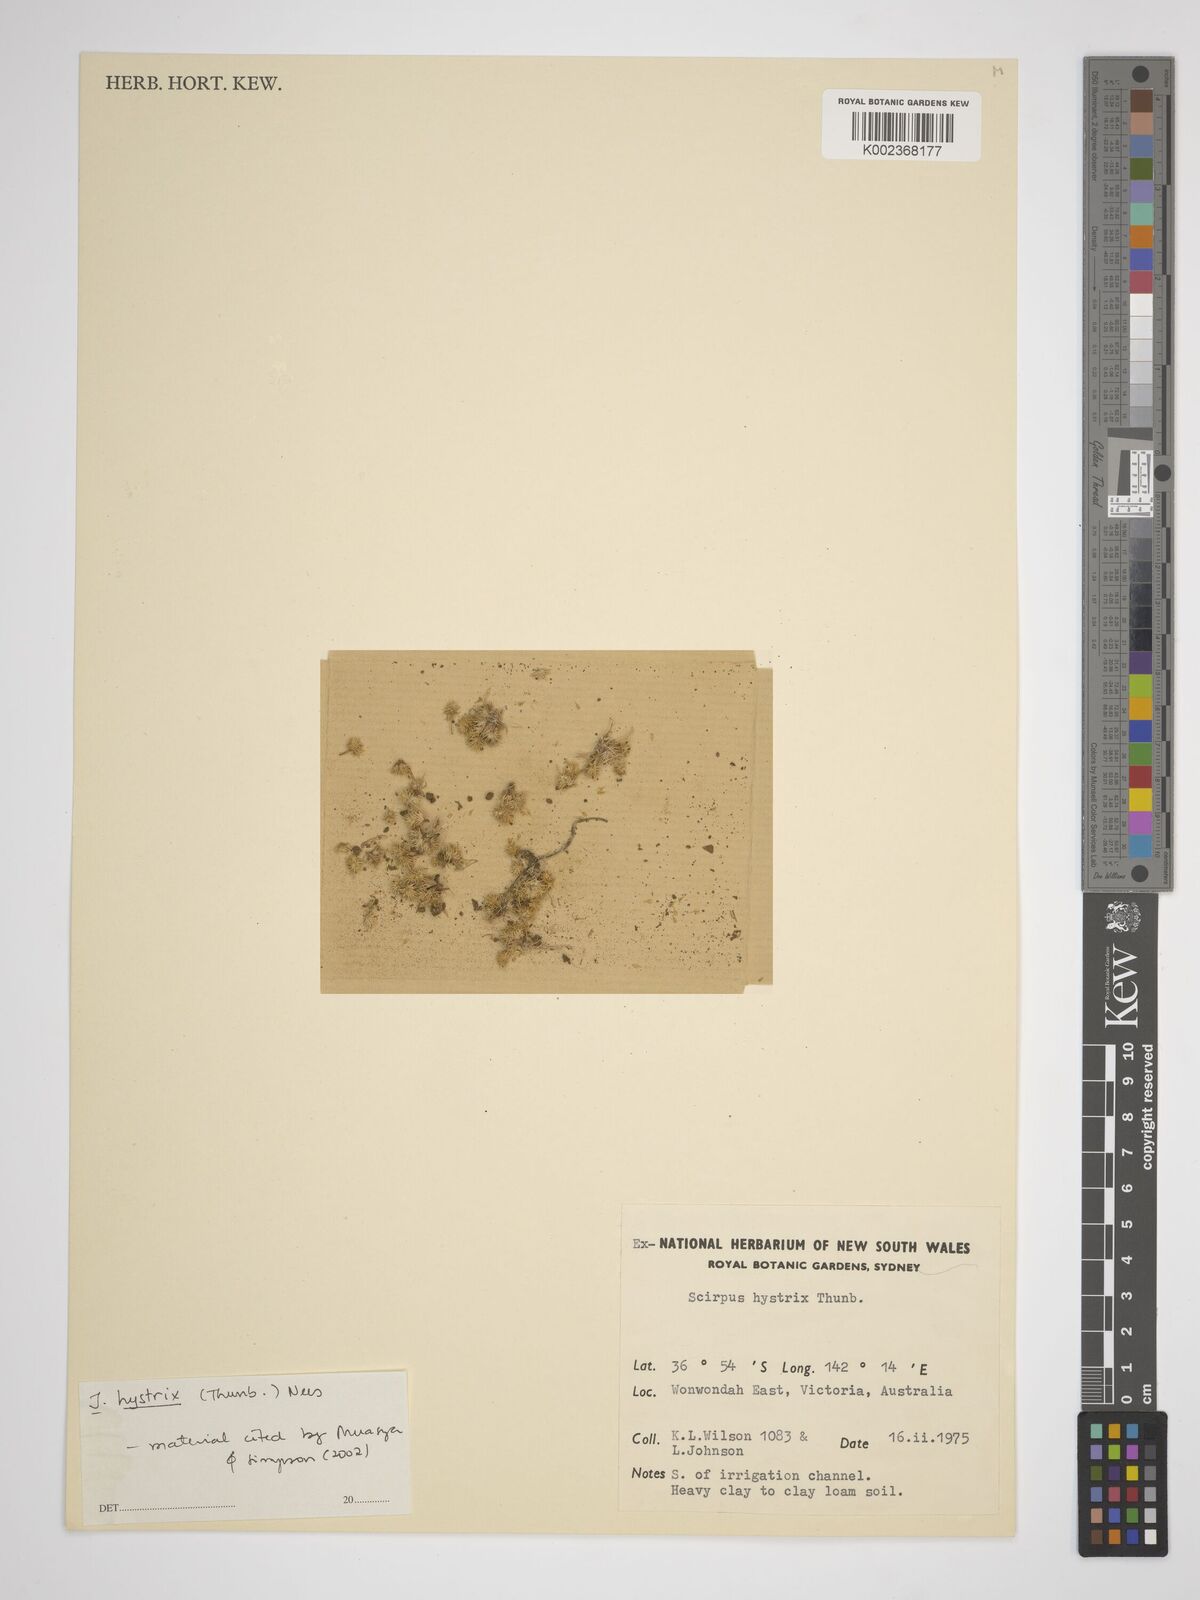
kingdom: Plantae
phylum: Tracheophyta
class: Liliopsida
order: Poales
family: Cyperaceae
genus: Isolepis
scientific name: Isolepis hystrix
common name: Bottlebrush bulrush
